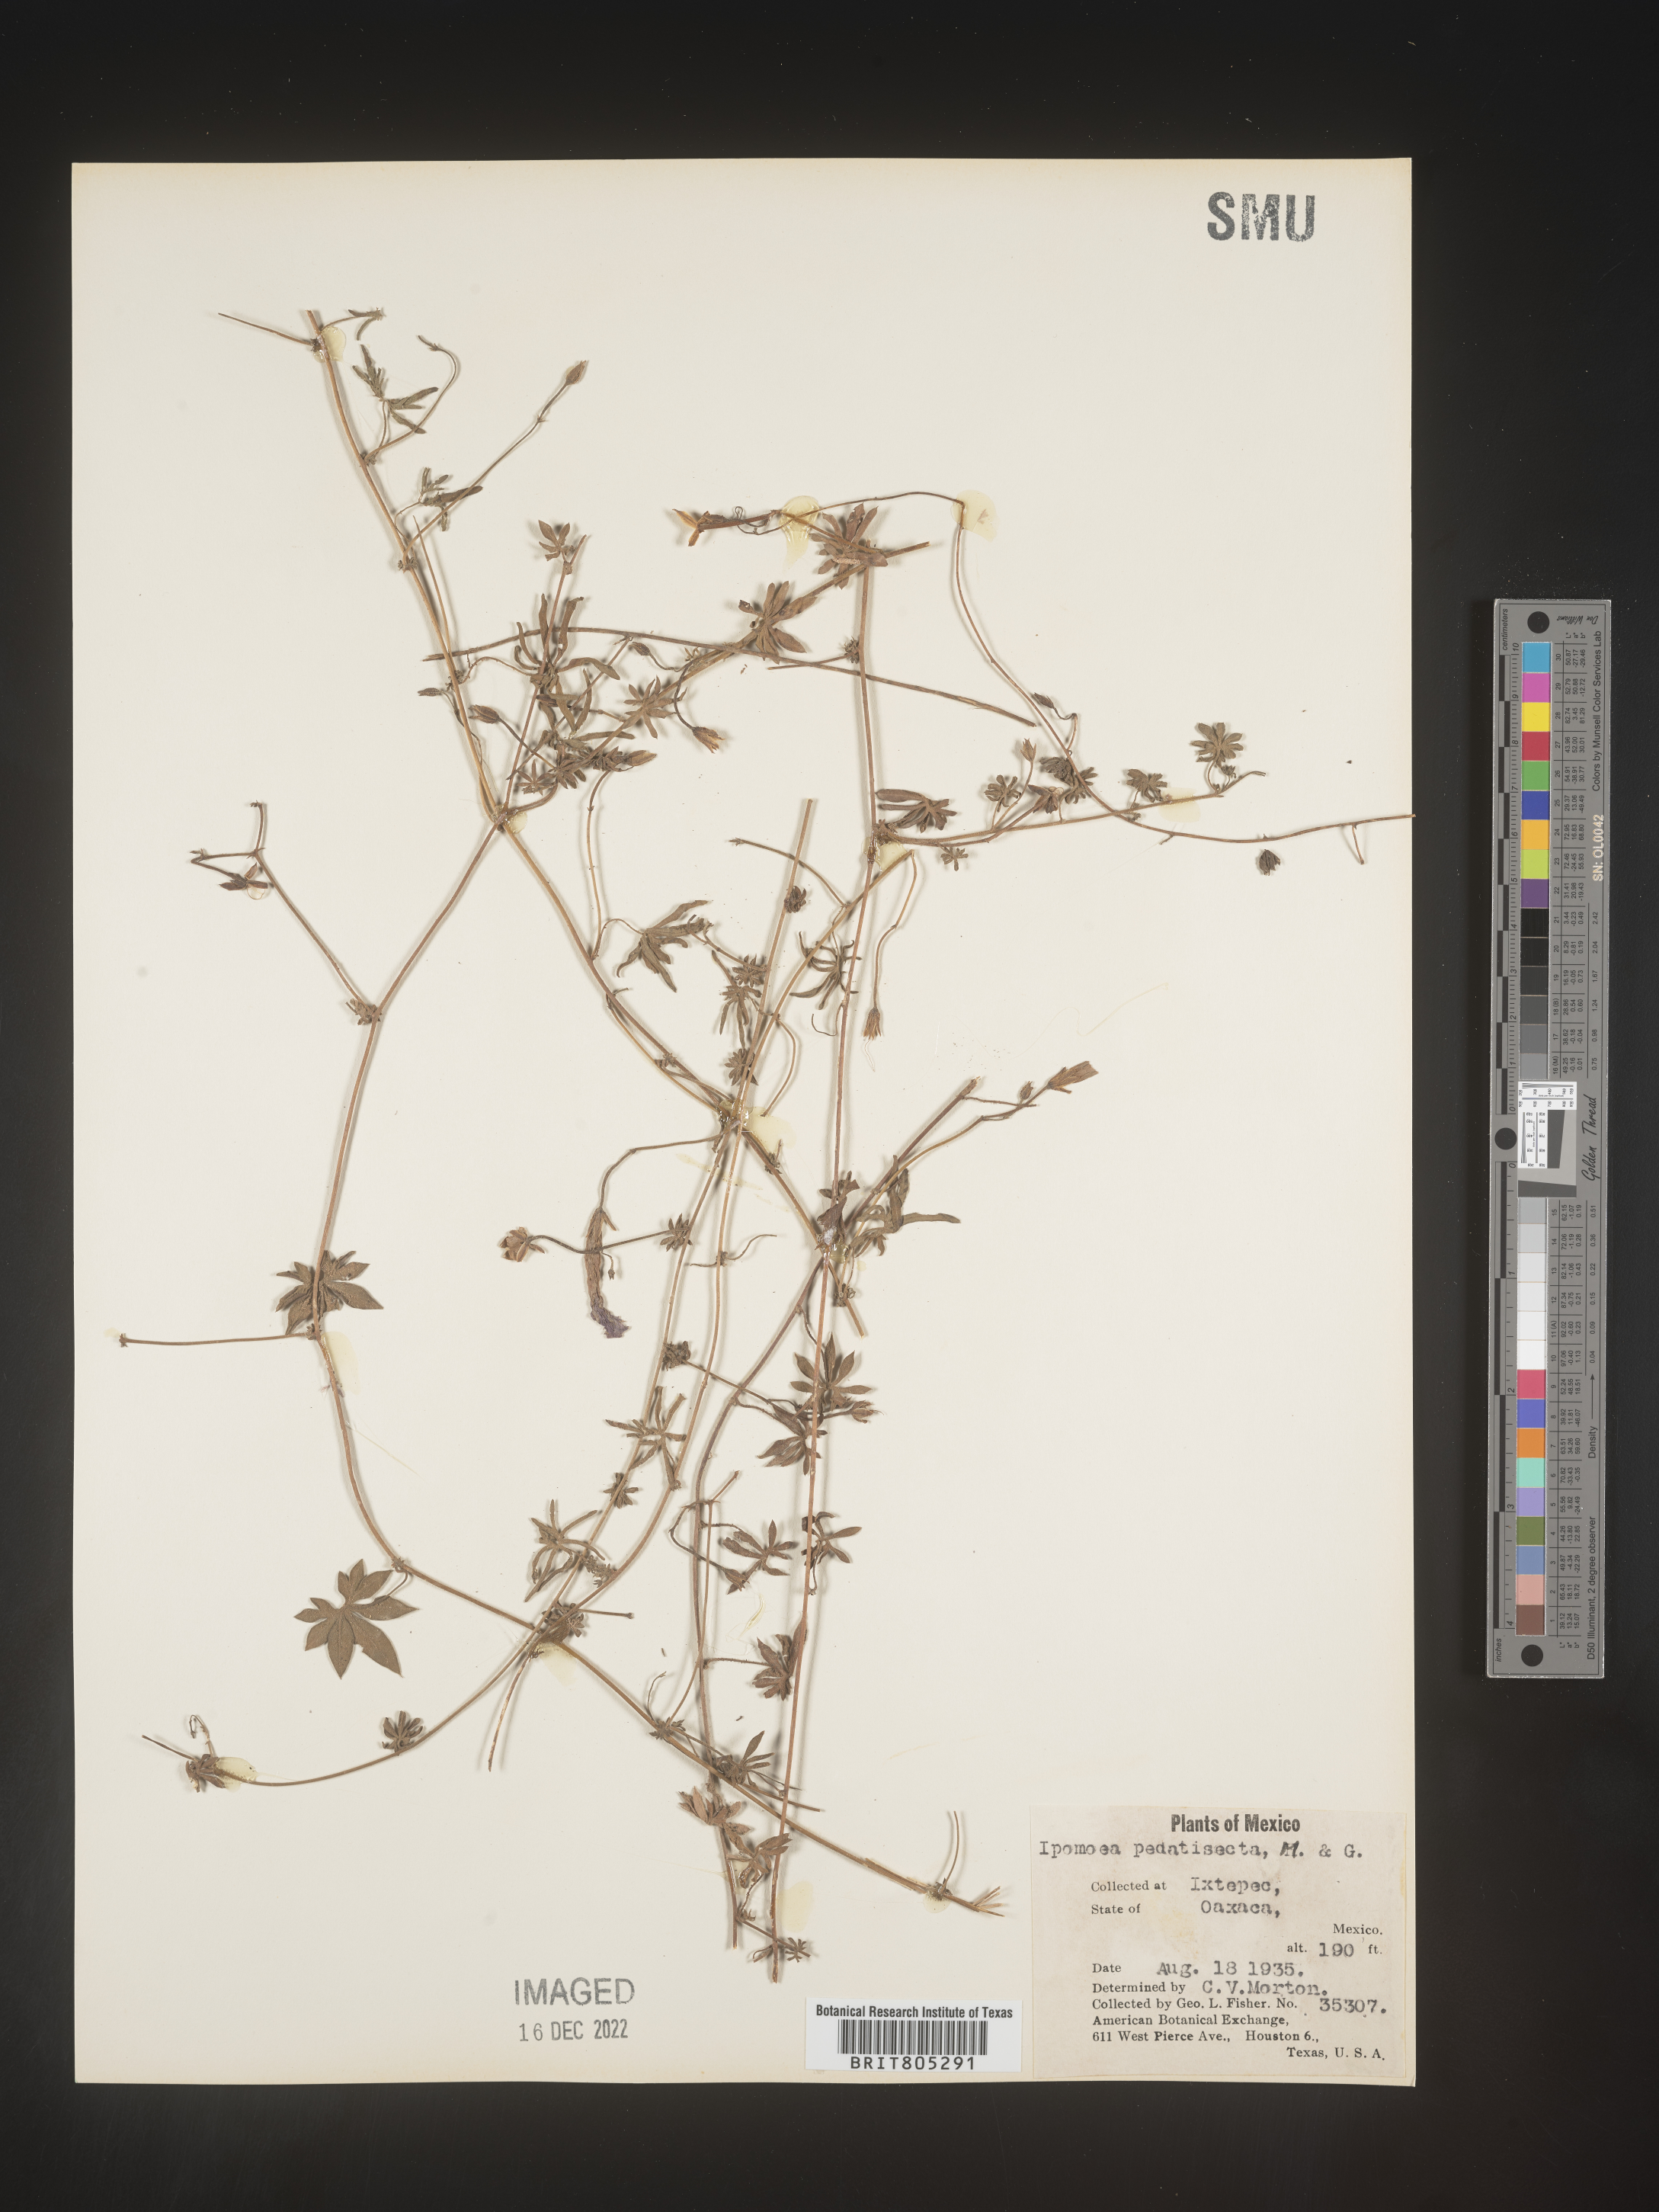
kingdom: Plantae
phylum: Tracheophyta
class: Magnoliopsida
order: Solanales
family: Convolvulaceae
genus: Ipomoea
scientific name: Ipomoea
